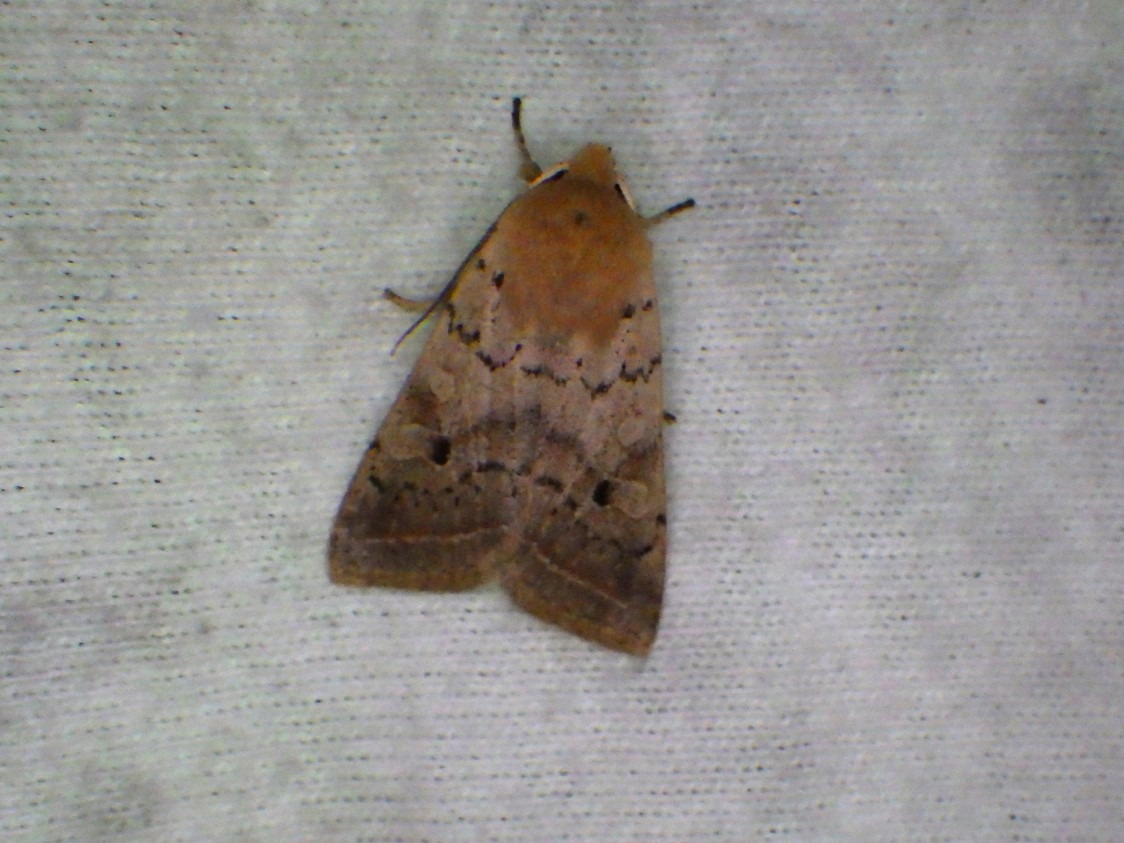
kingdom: Animalia
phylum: Arthropoda
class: Insecta
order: Lepidoptera
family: Noctuidae
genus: Agrochola
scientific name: Agrochola Leptologia macilenta
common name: Mager jordfarveugle
